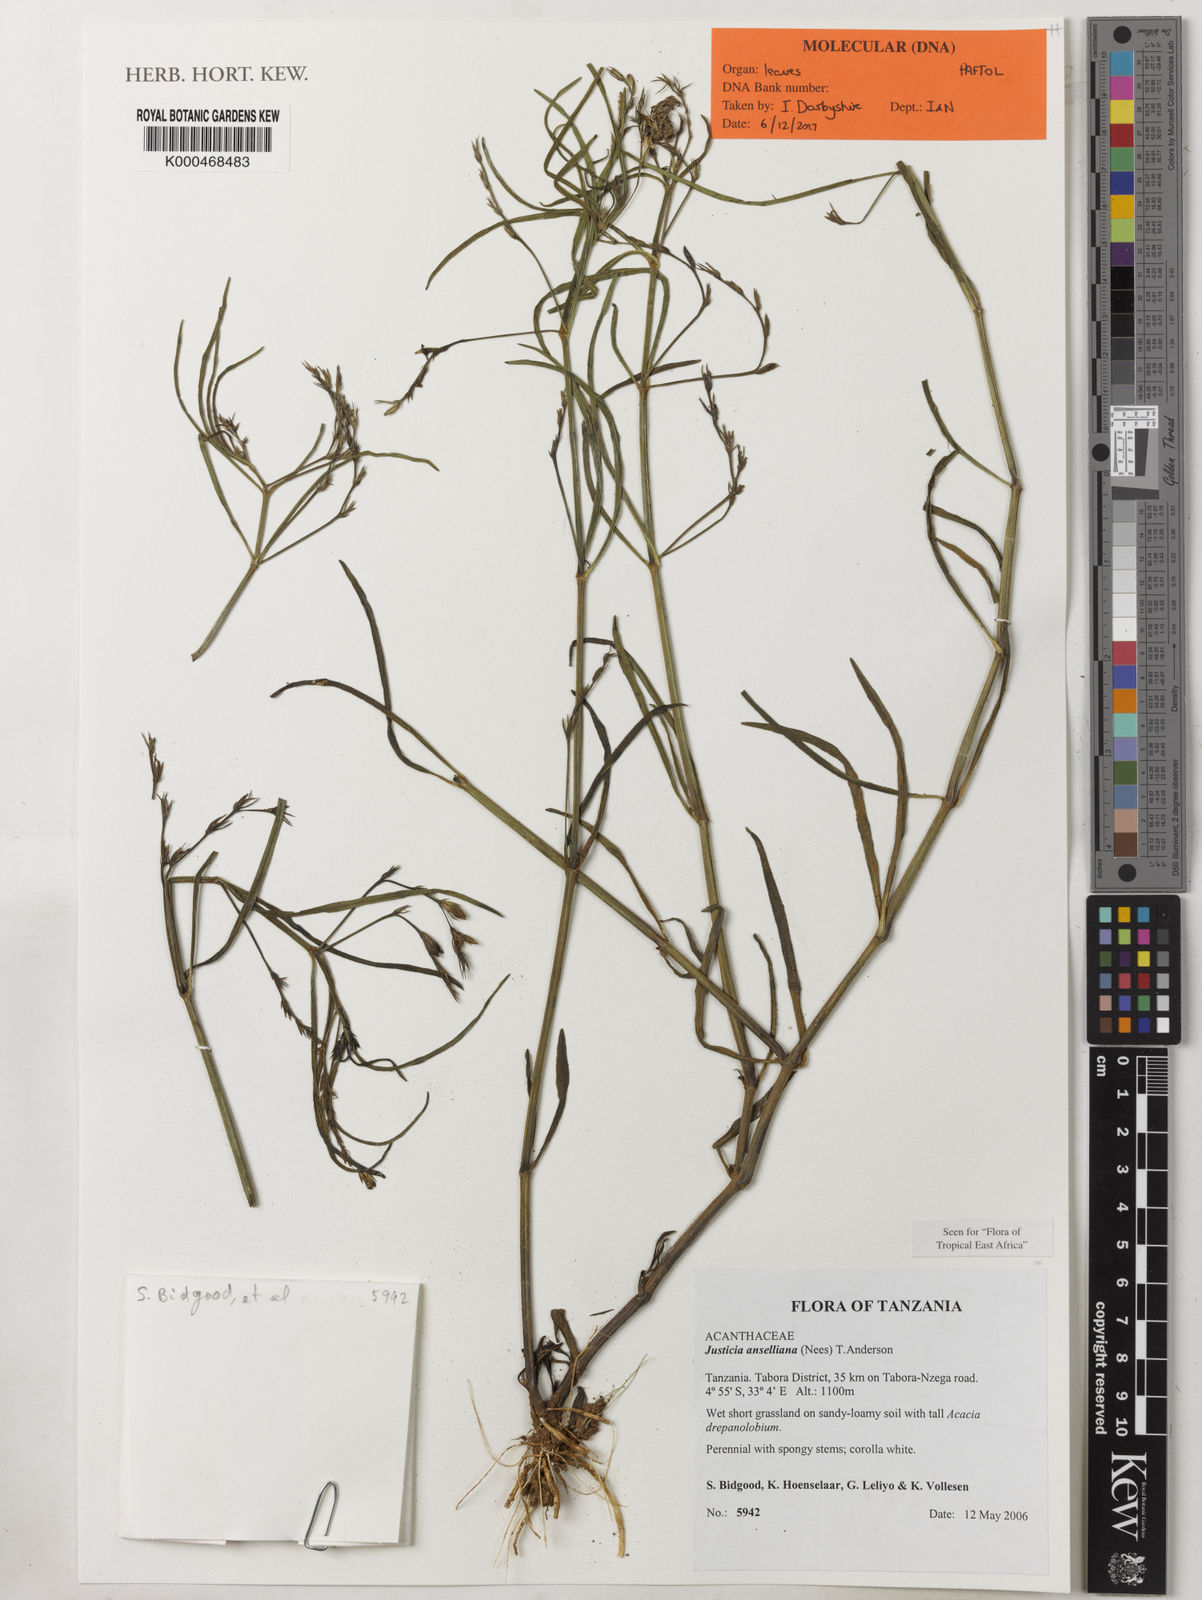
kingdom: Plantae
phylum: Tracheophyta
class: Magnoliopsida
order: Lamiales
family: Acanthaceae
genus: Justicia
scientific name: Justicia anselliana
